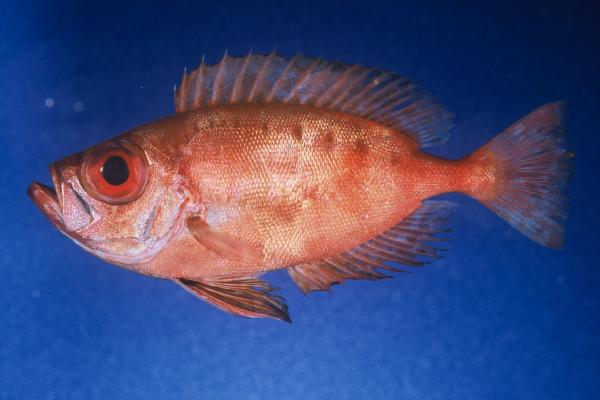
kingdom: Animalia
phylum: Chordata
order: Perciformes
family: Priacanthidae
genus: Priacanthus
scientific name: Priacanthus hamrur
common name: Moontail bullseye
